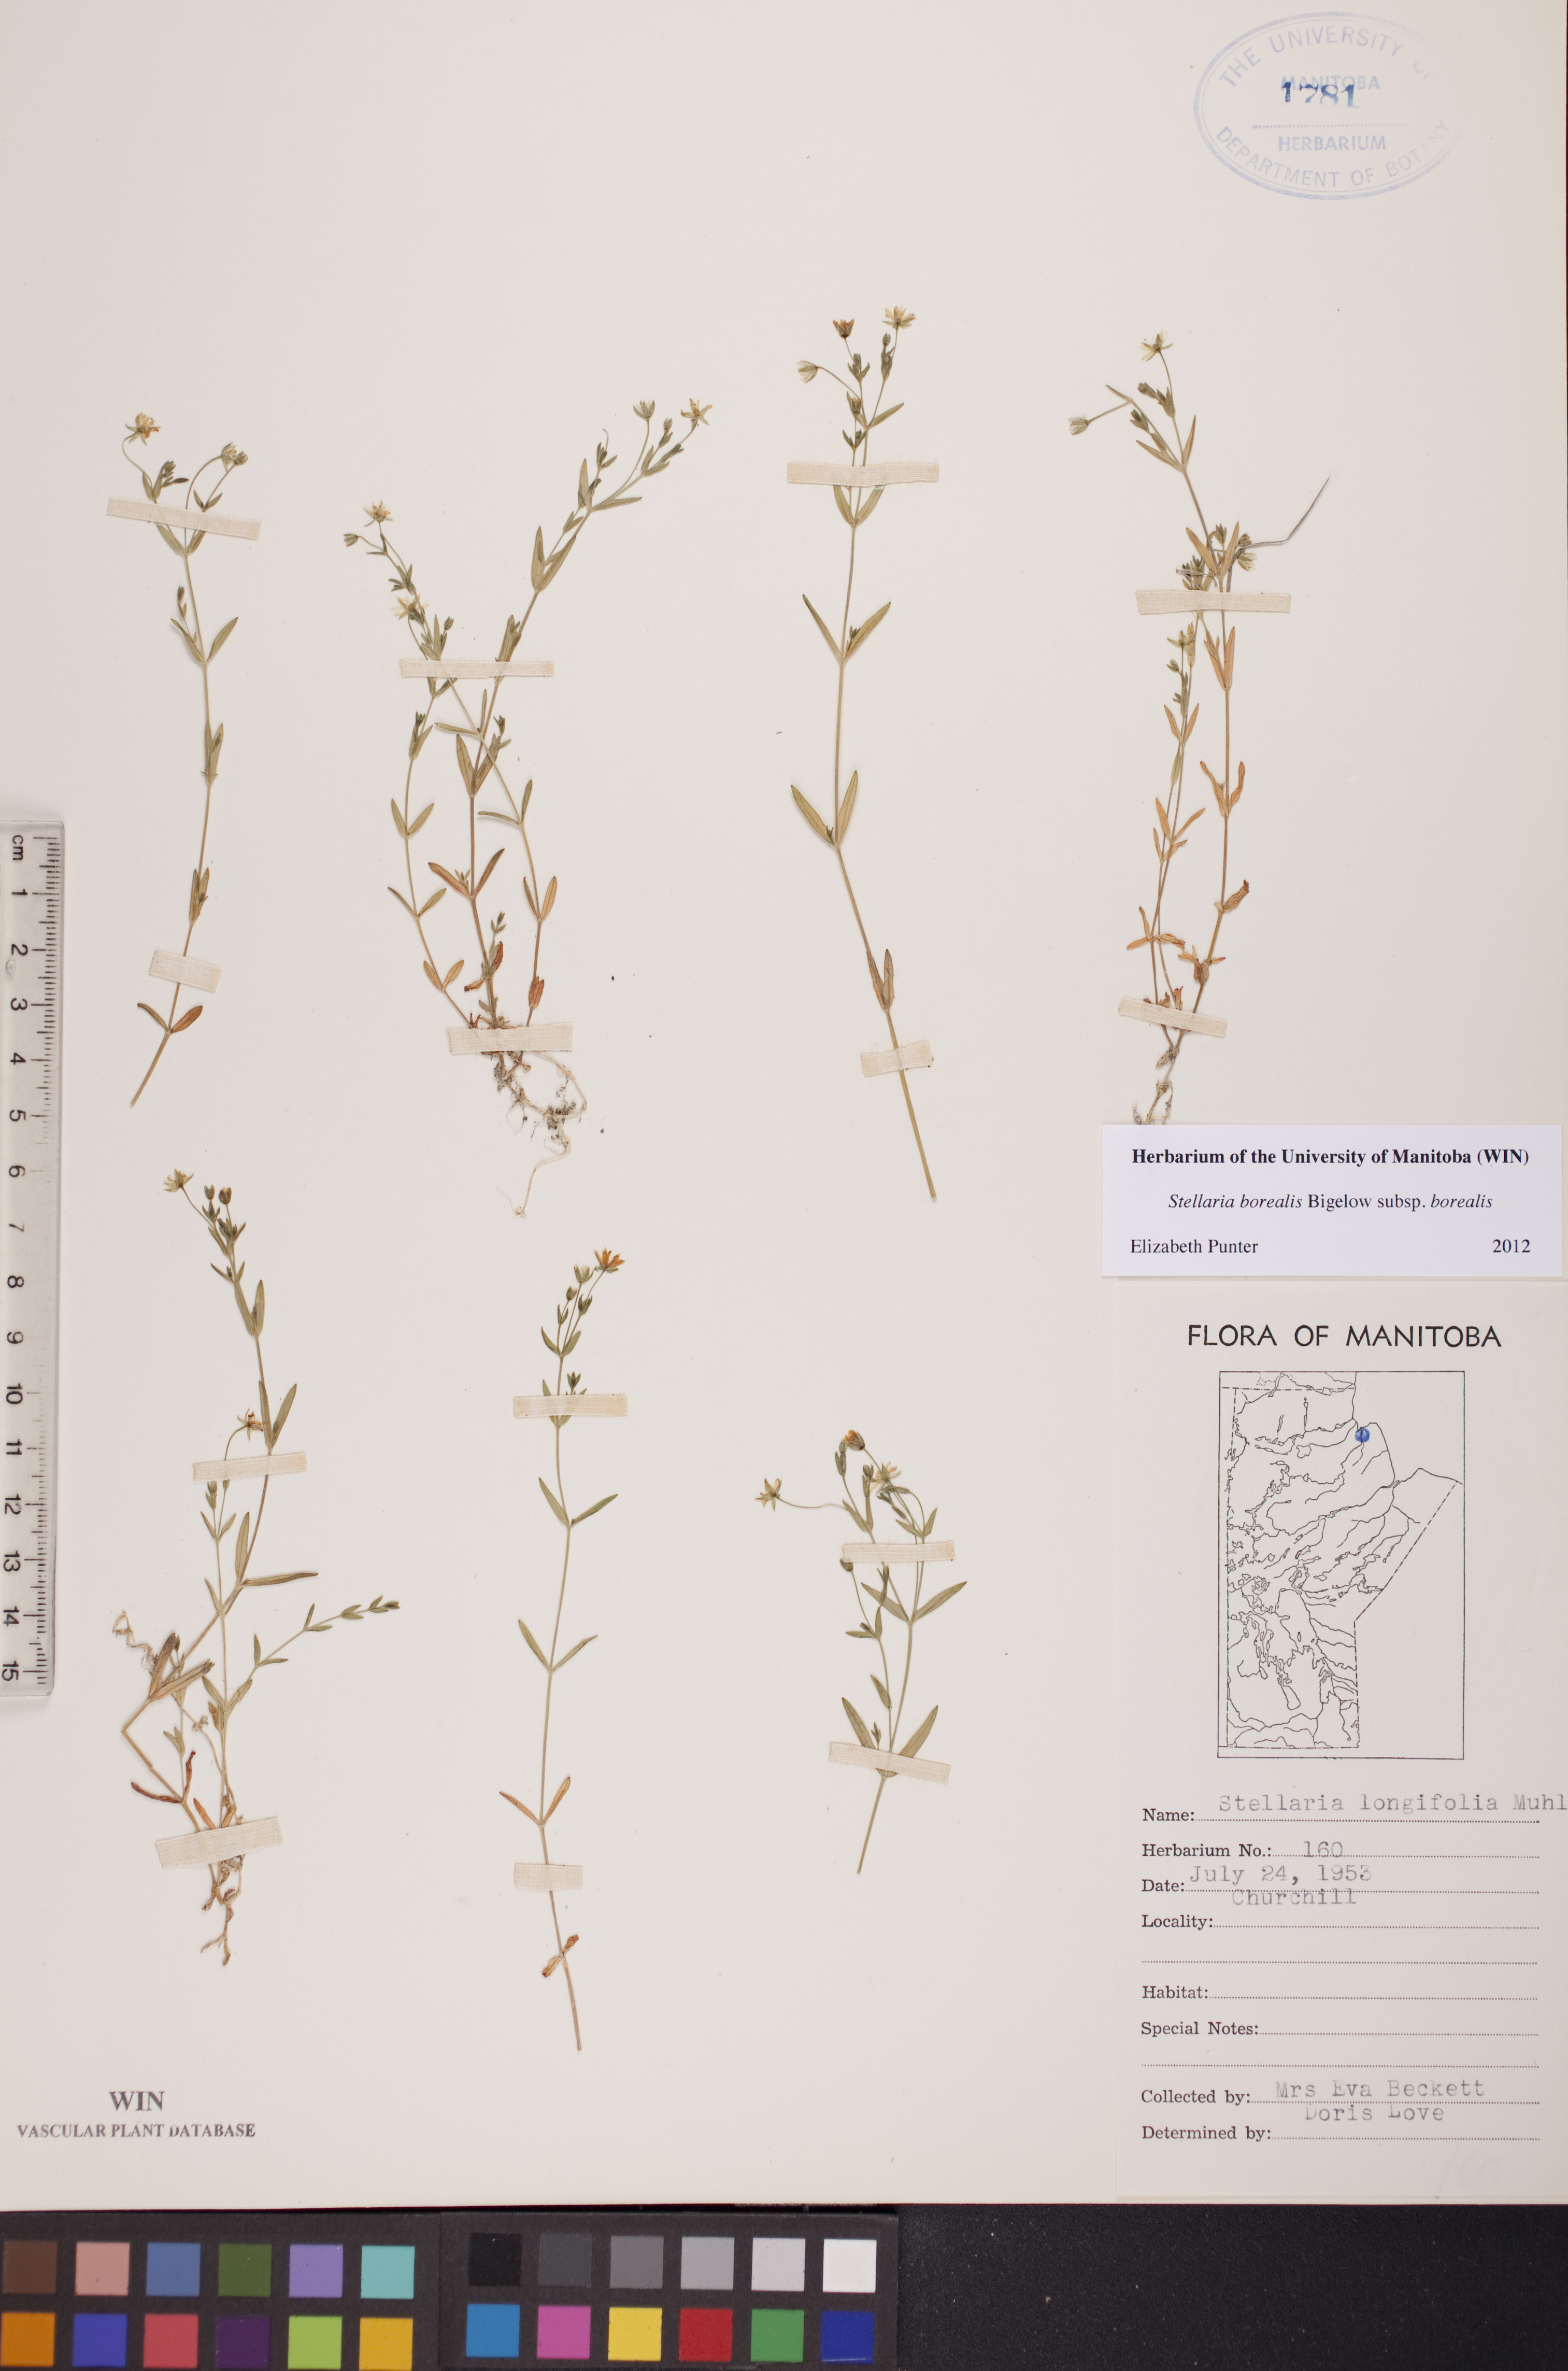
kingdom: Plantae
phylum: Tracheophyta
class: Magnoliopsida
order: Caryophyllales
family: Caryophyllaceae
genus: Stellaria
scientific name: Stellaria borealis
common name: Boreal starwort
